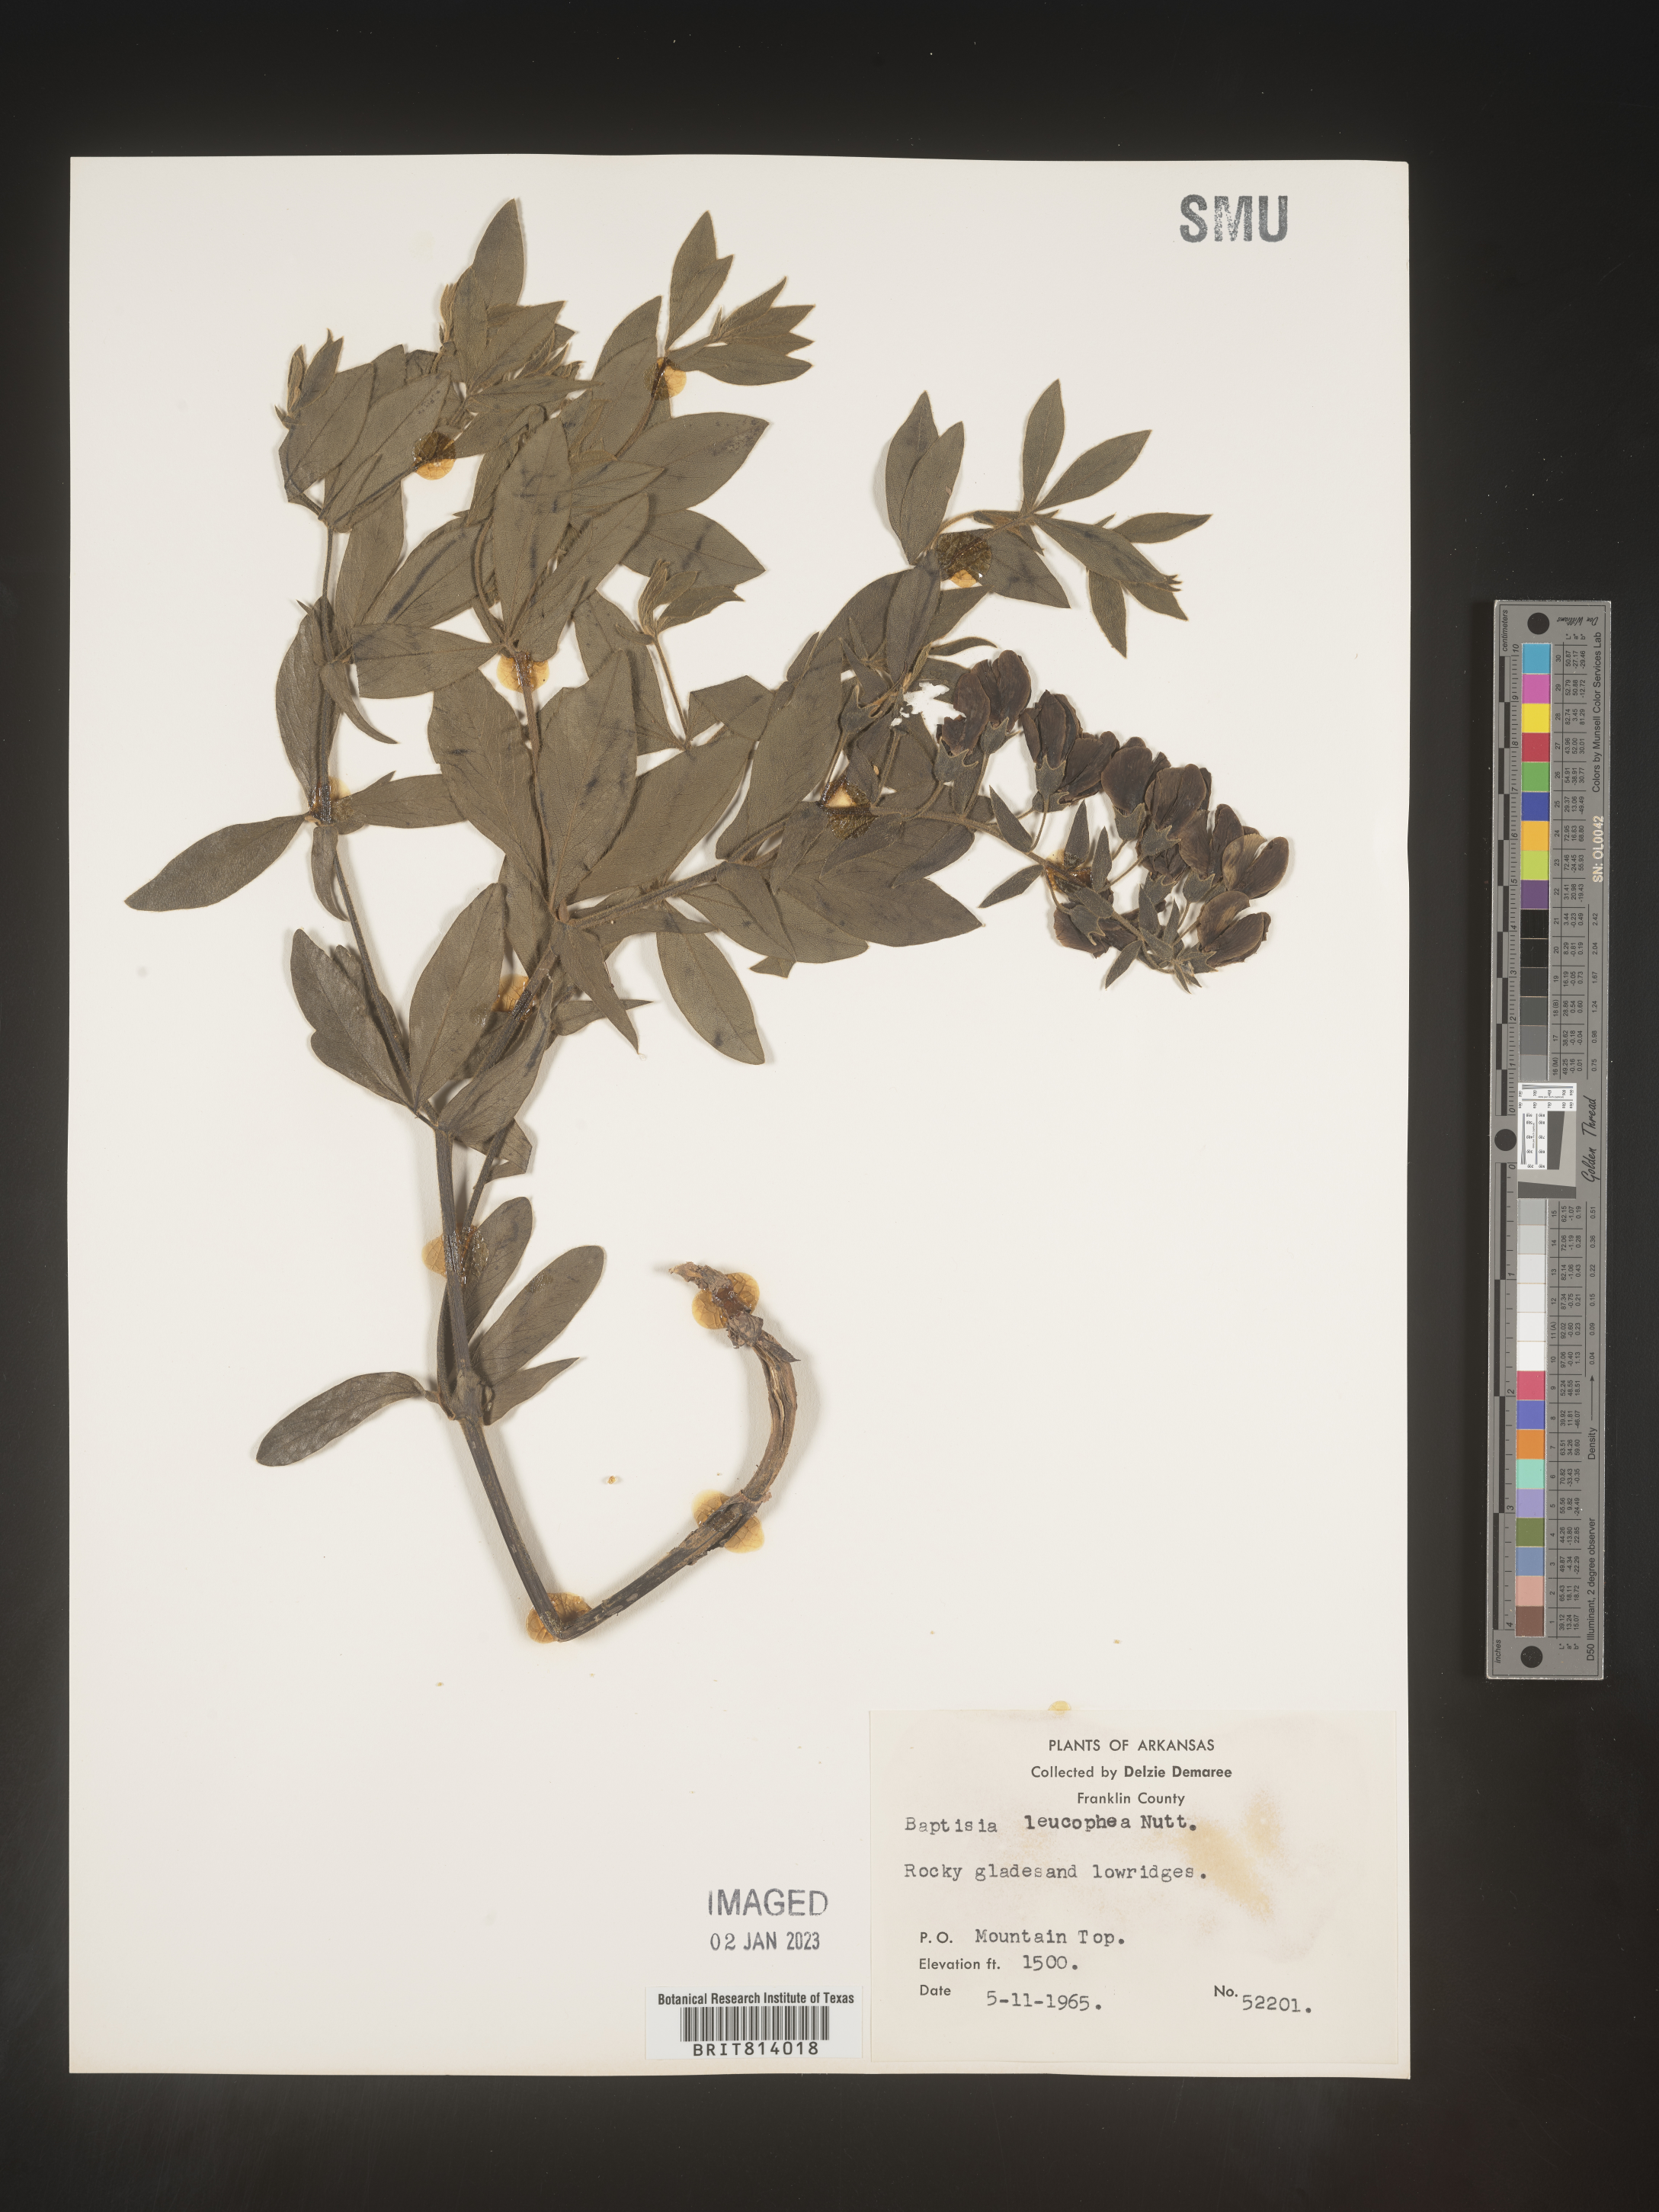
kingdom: Plantae
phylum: Tracheophyta
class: Magnoliopsida
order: Fabales
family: Fabaceae
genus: Baptisia
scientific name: Baptisia bracteata
